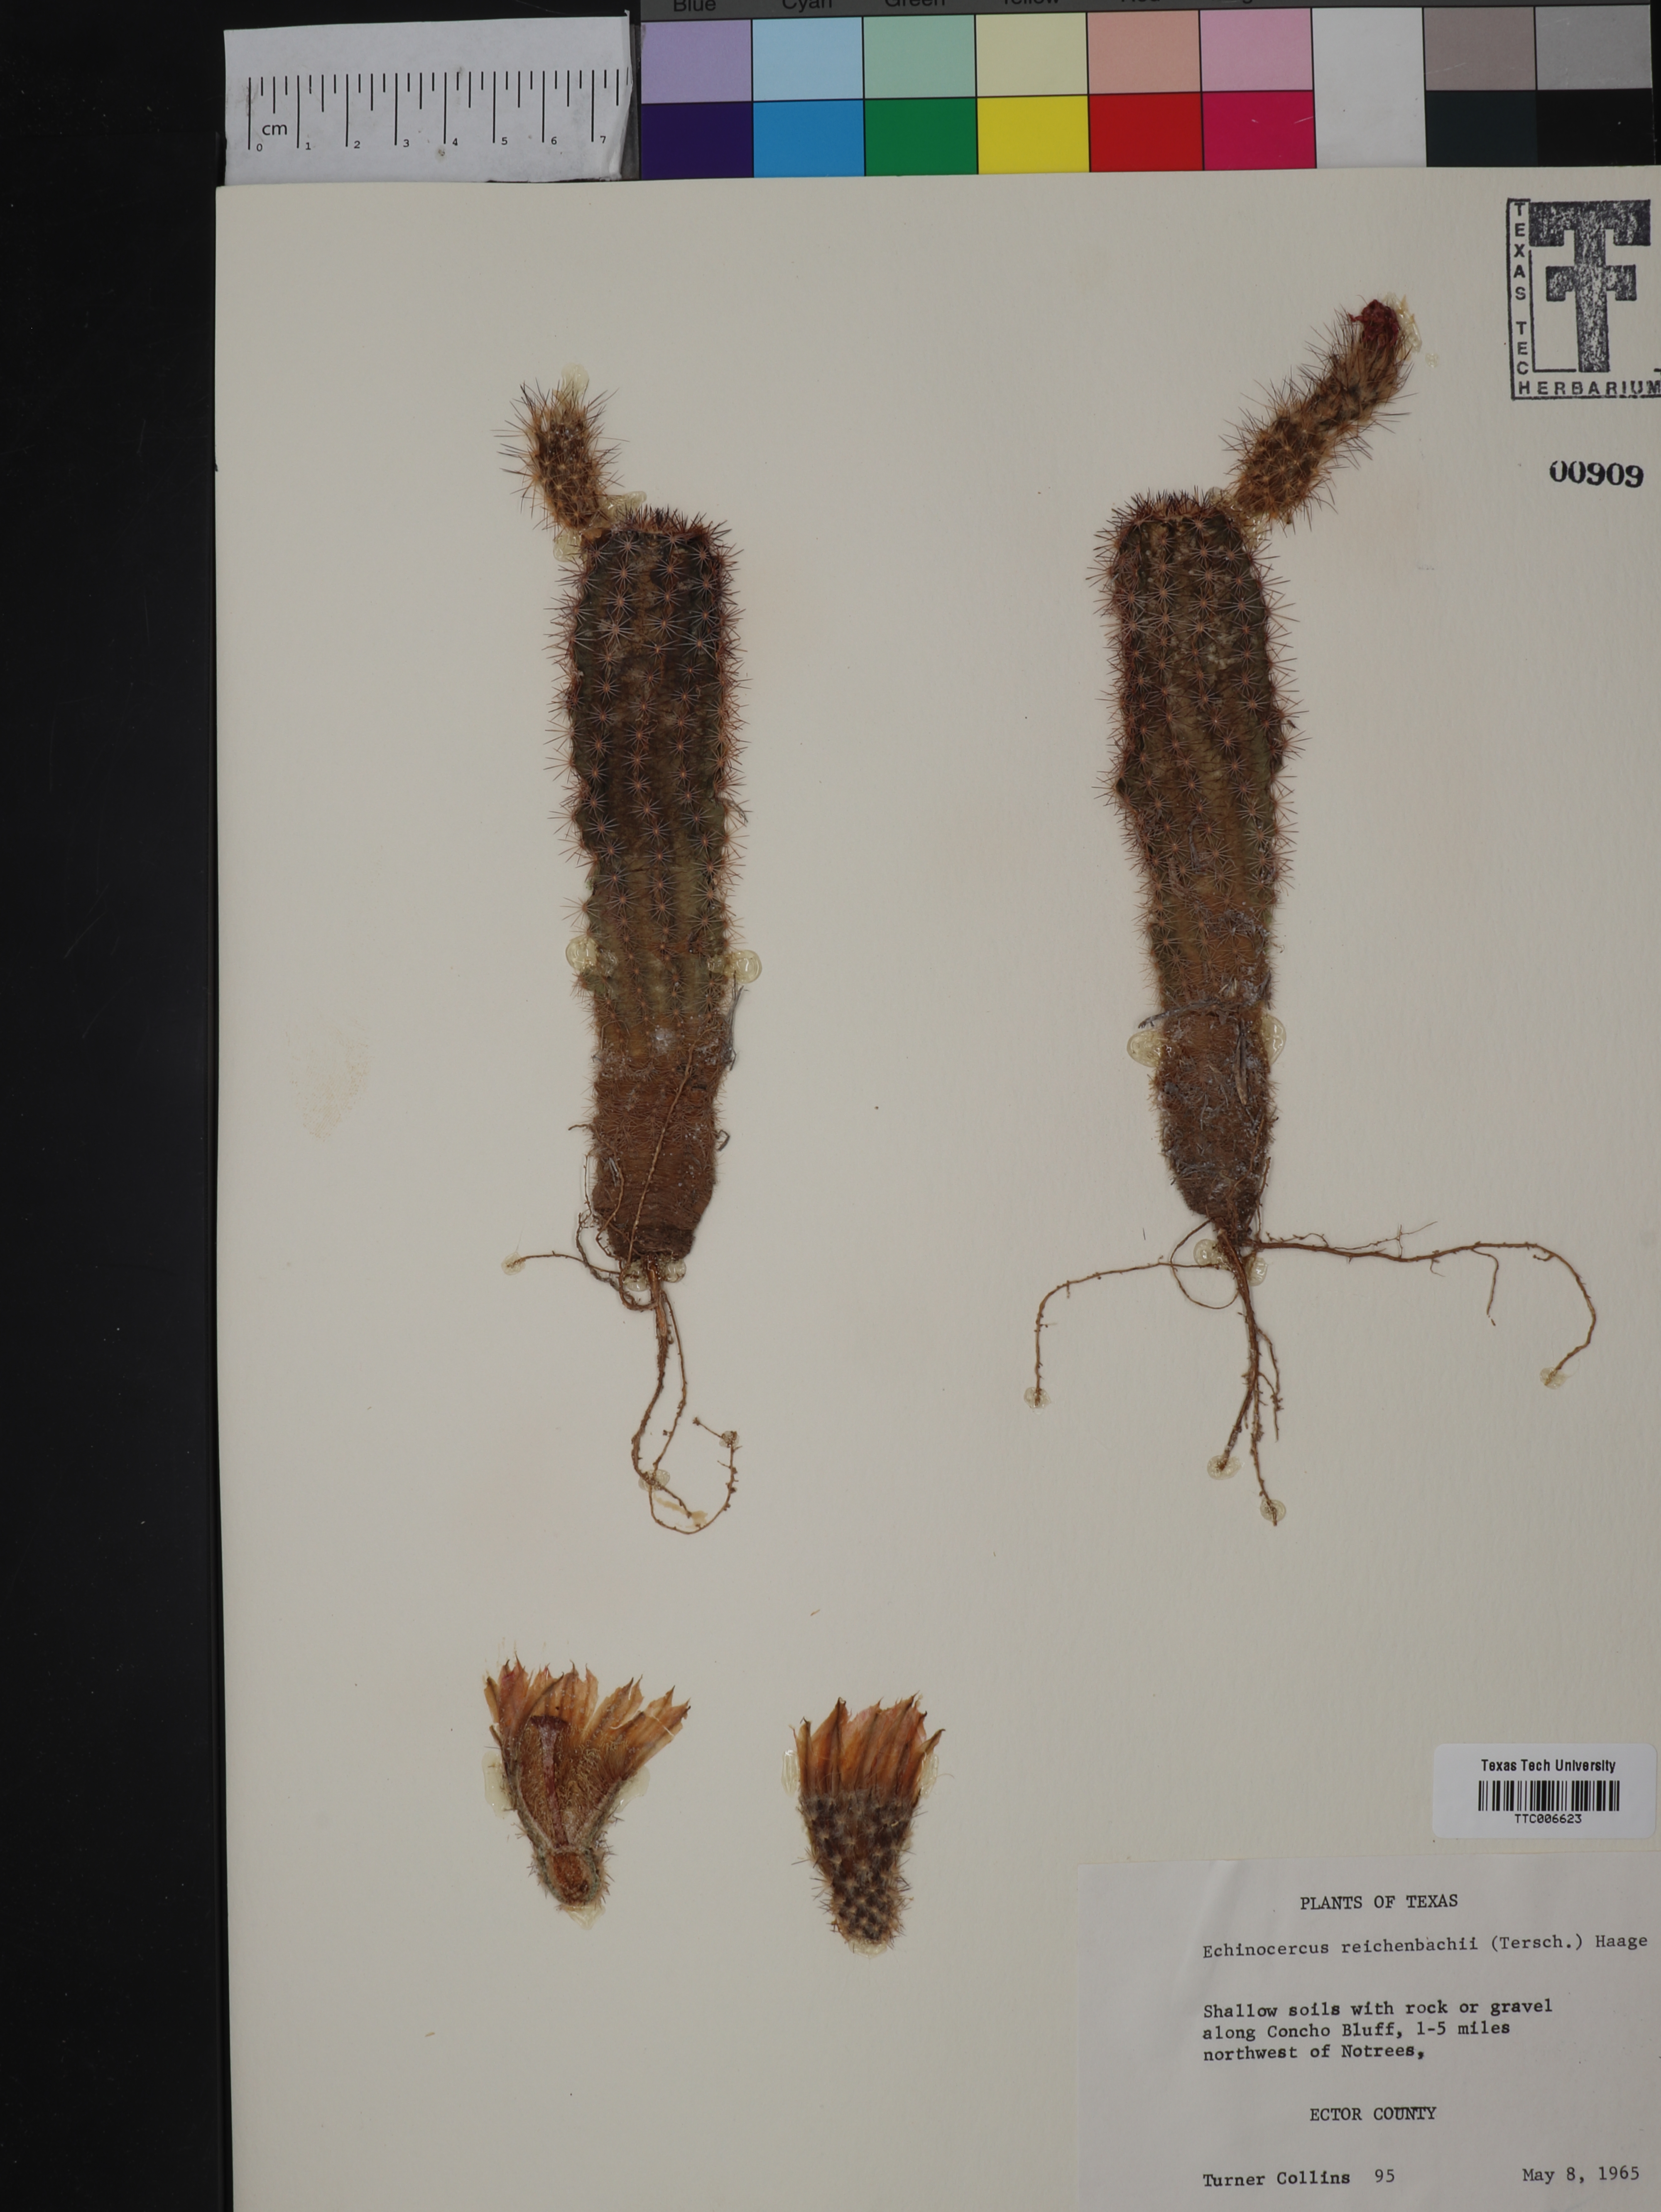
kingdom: Plantae
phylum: Tracheophyta
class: Magnoliopsida
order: Caryophyllales
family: Cactaceae
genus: Echinocereus
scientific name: Echinocereus reichenbachii
